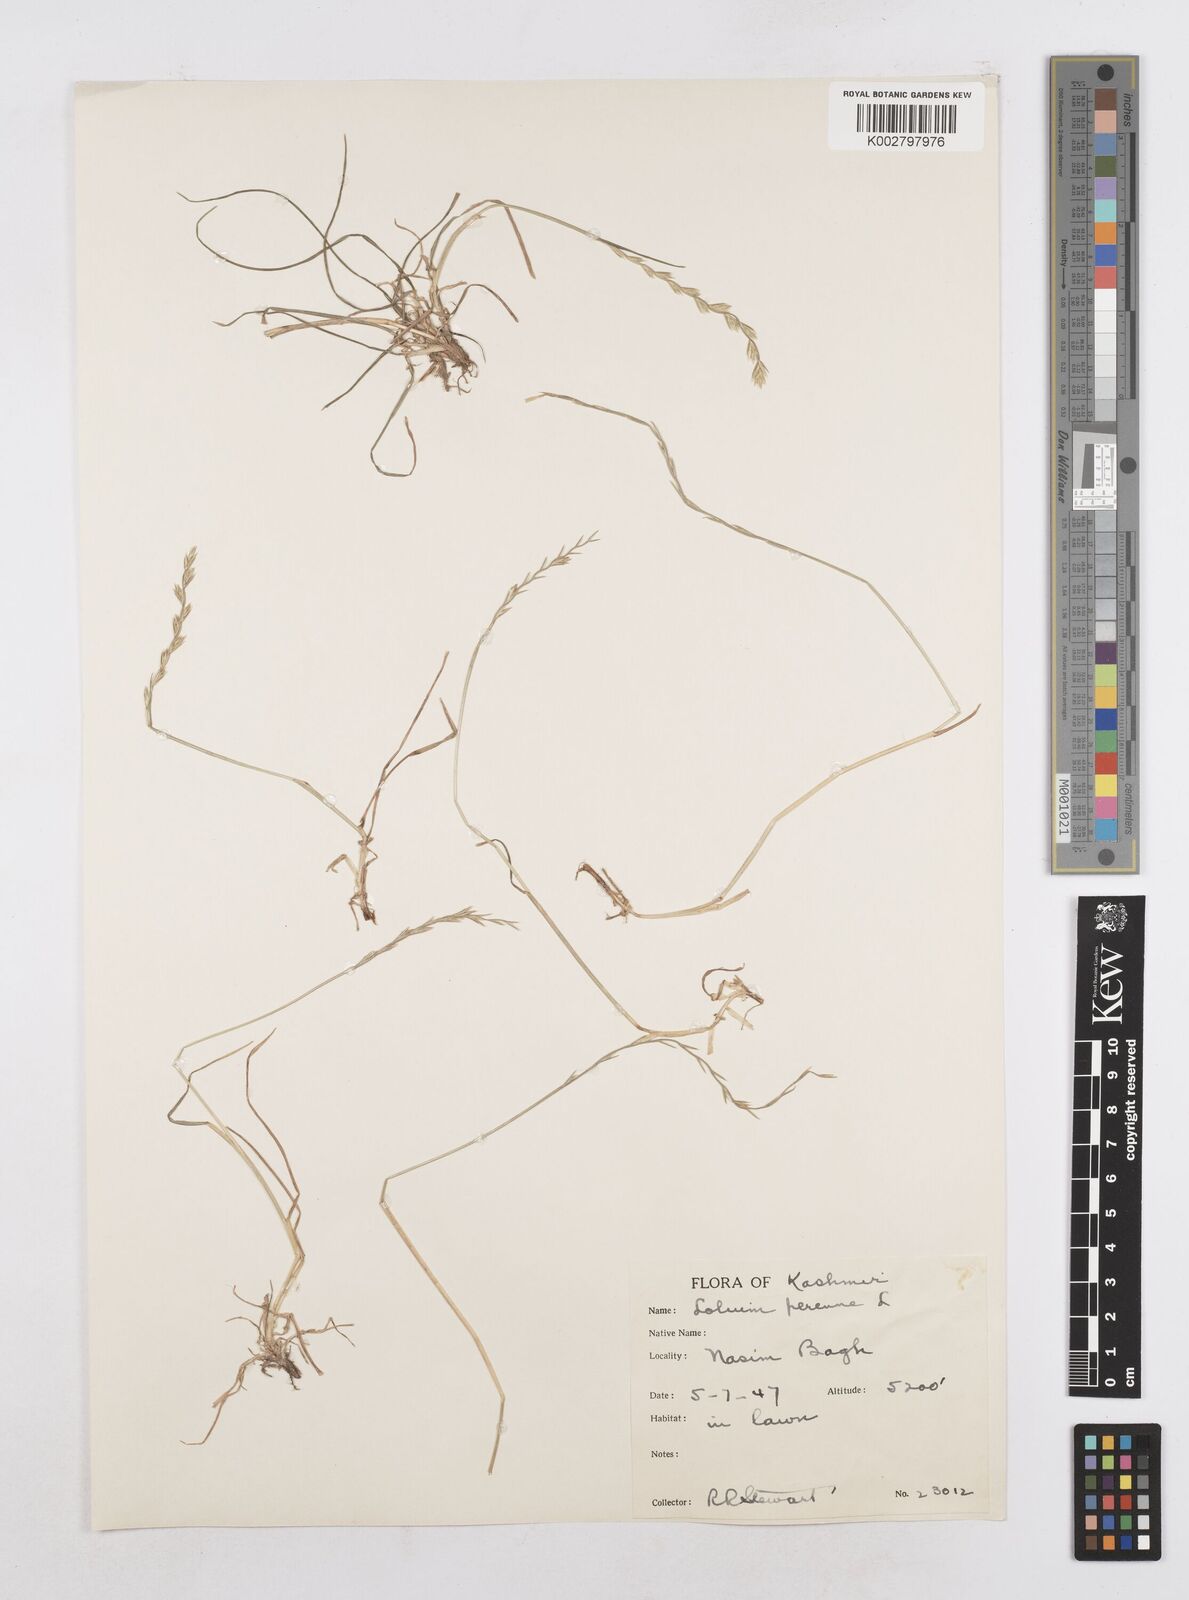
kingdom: Plantae
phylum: Tracheophyta
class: Liliopsida
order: Poales
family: Poaceae
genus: Lolium
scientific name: Lolium perenne
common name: Perennial ryegrass
